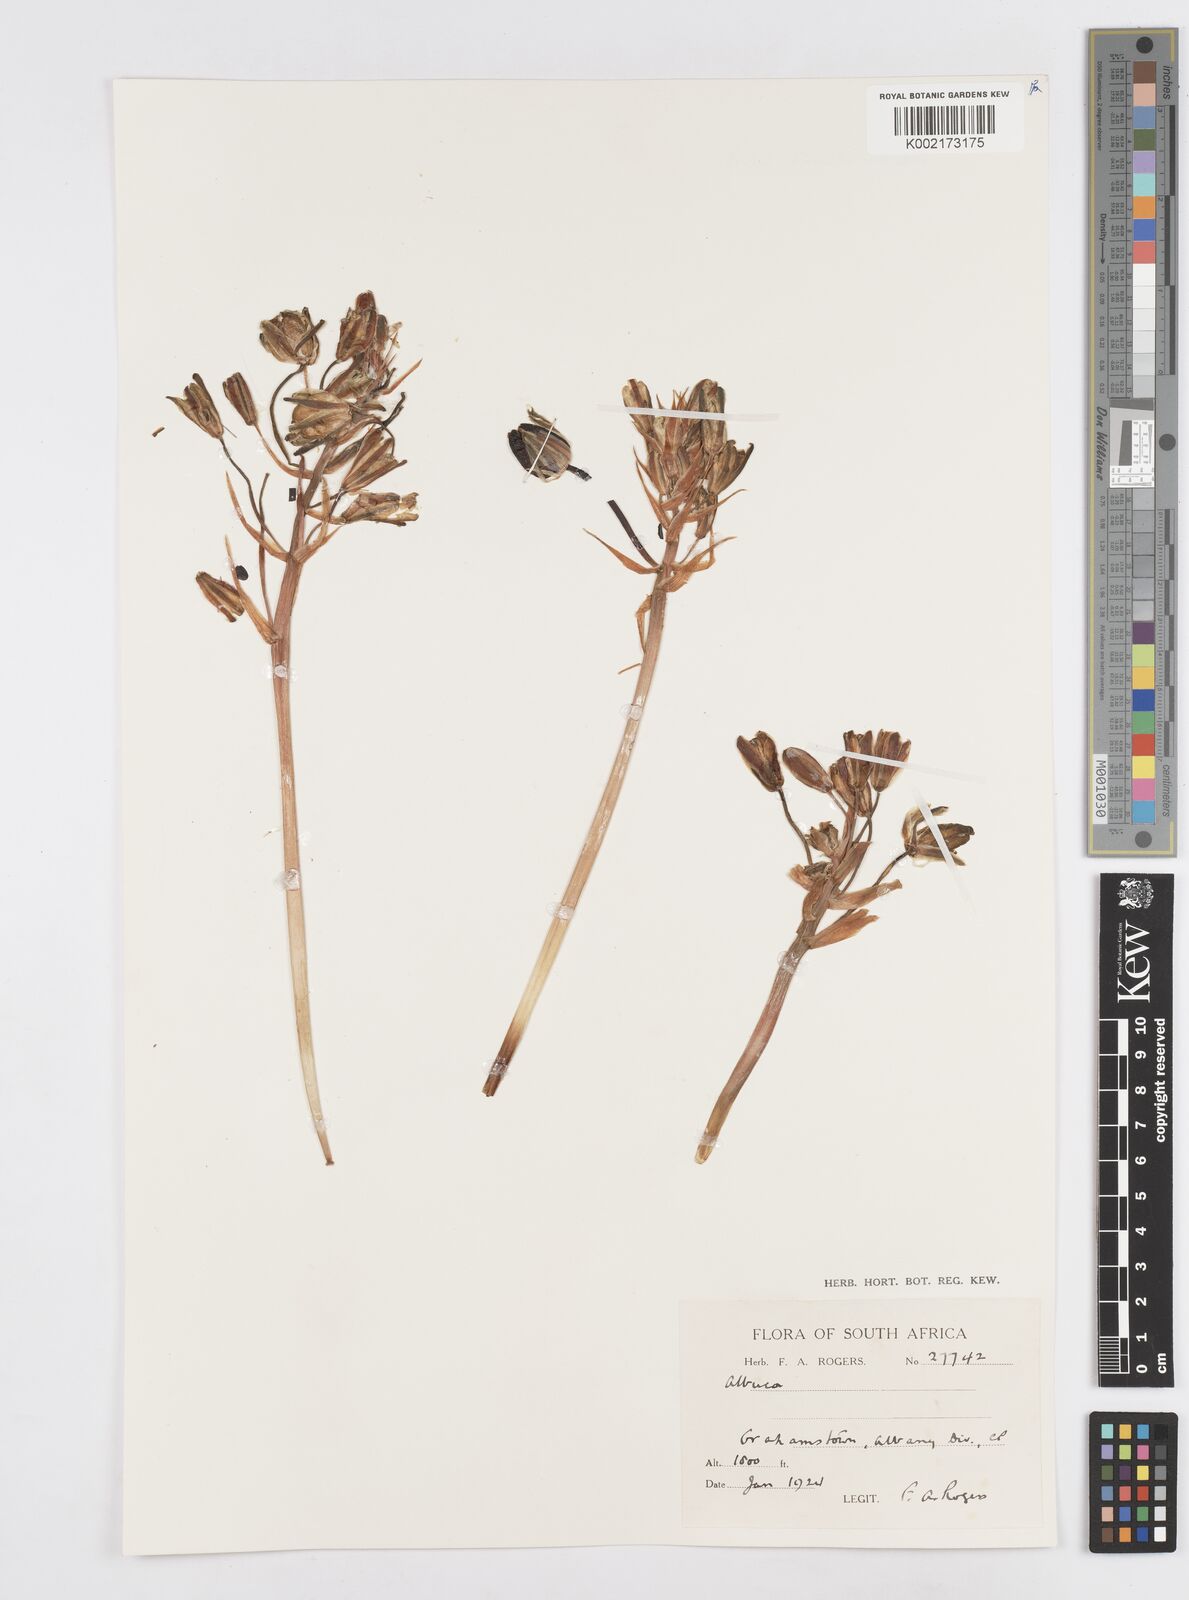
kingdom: Plantae
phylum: Tracheophyta
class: Liliopsida
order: Asparagales
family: Asparagaceae
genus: Albuca
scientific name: Albuca
